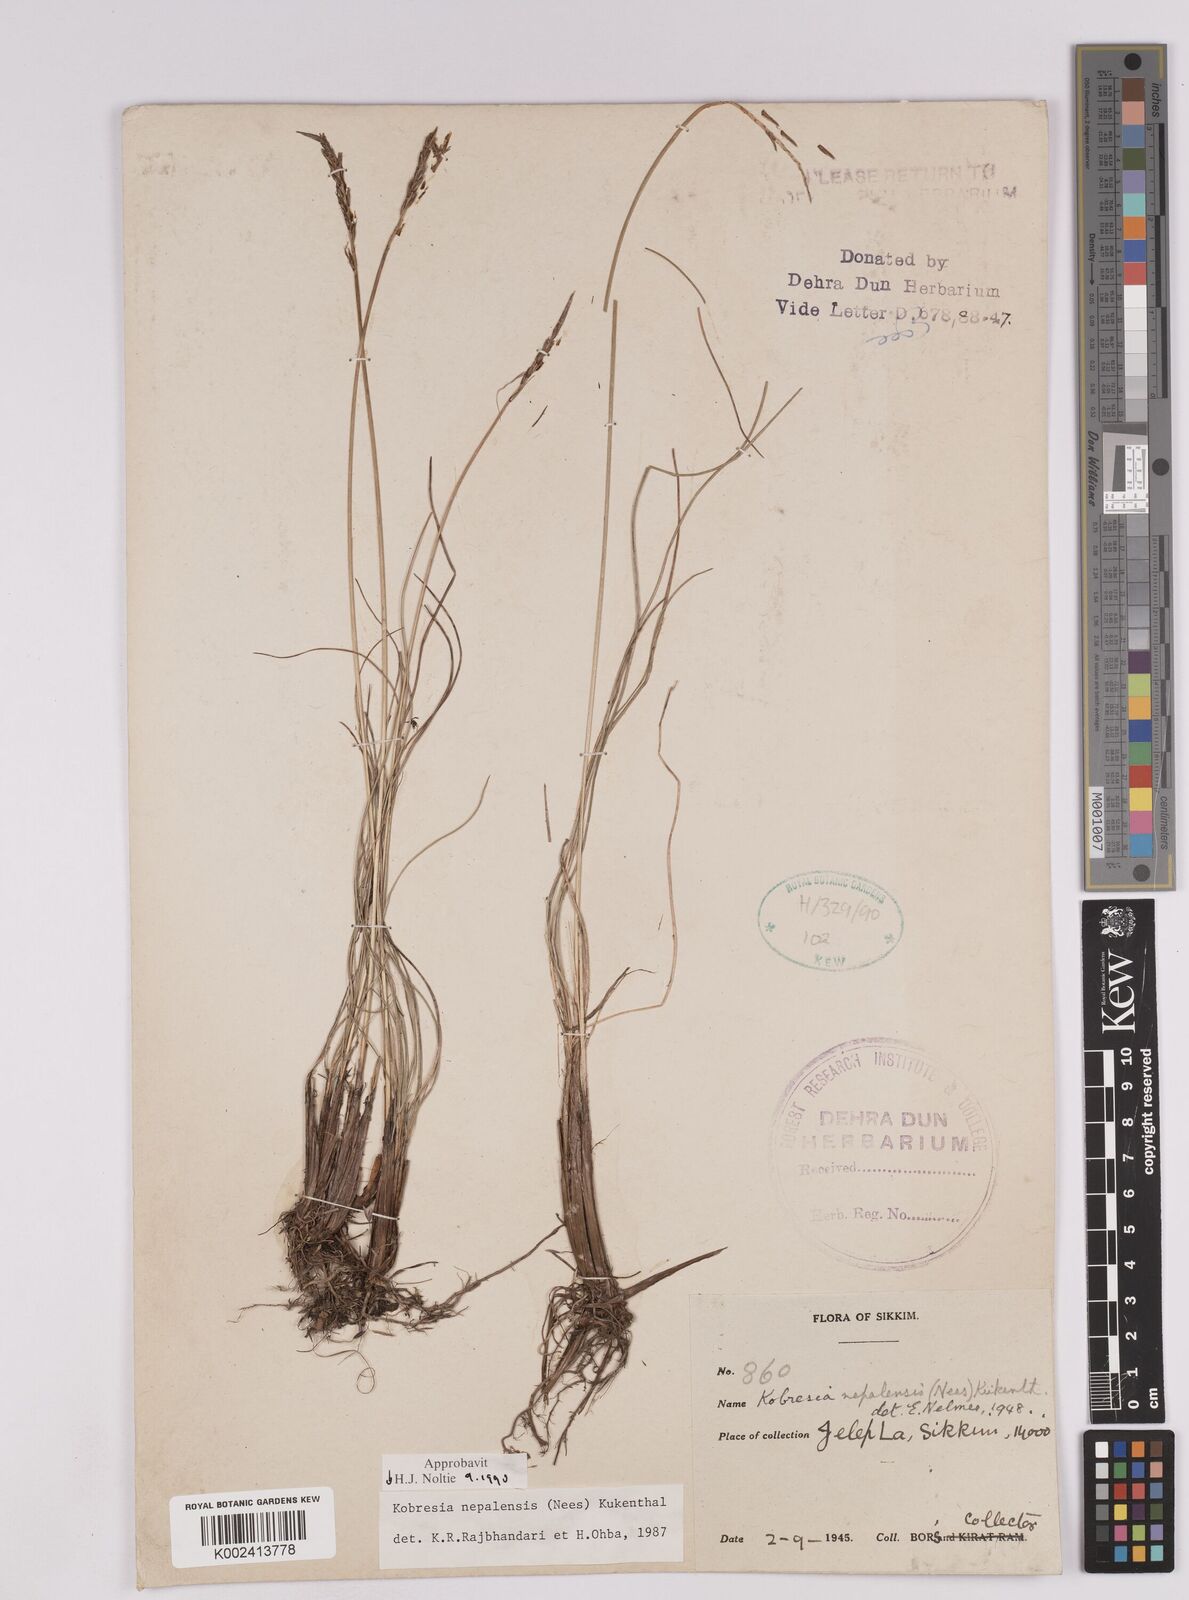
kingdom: Plantae
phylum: Tracheophyta
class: Liliopsida
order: Poales
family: Cyperaceae
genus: Carex
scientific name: Carex unciniiformis
